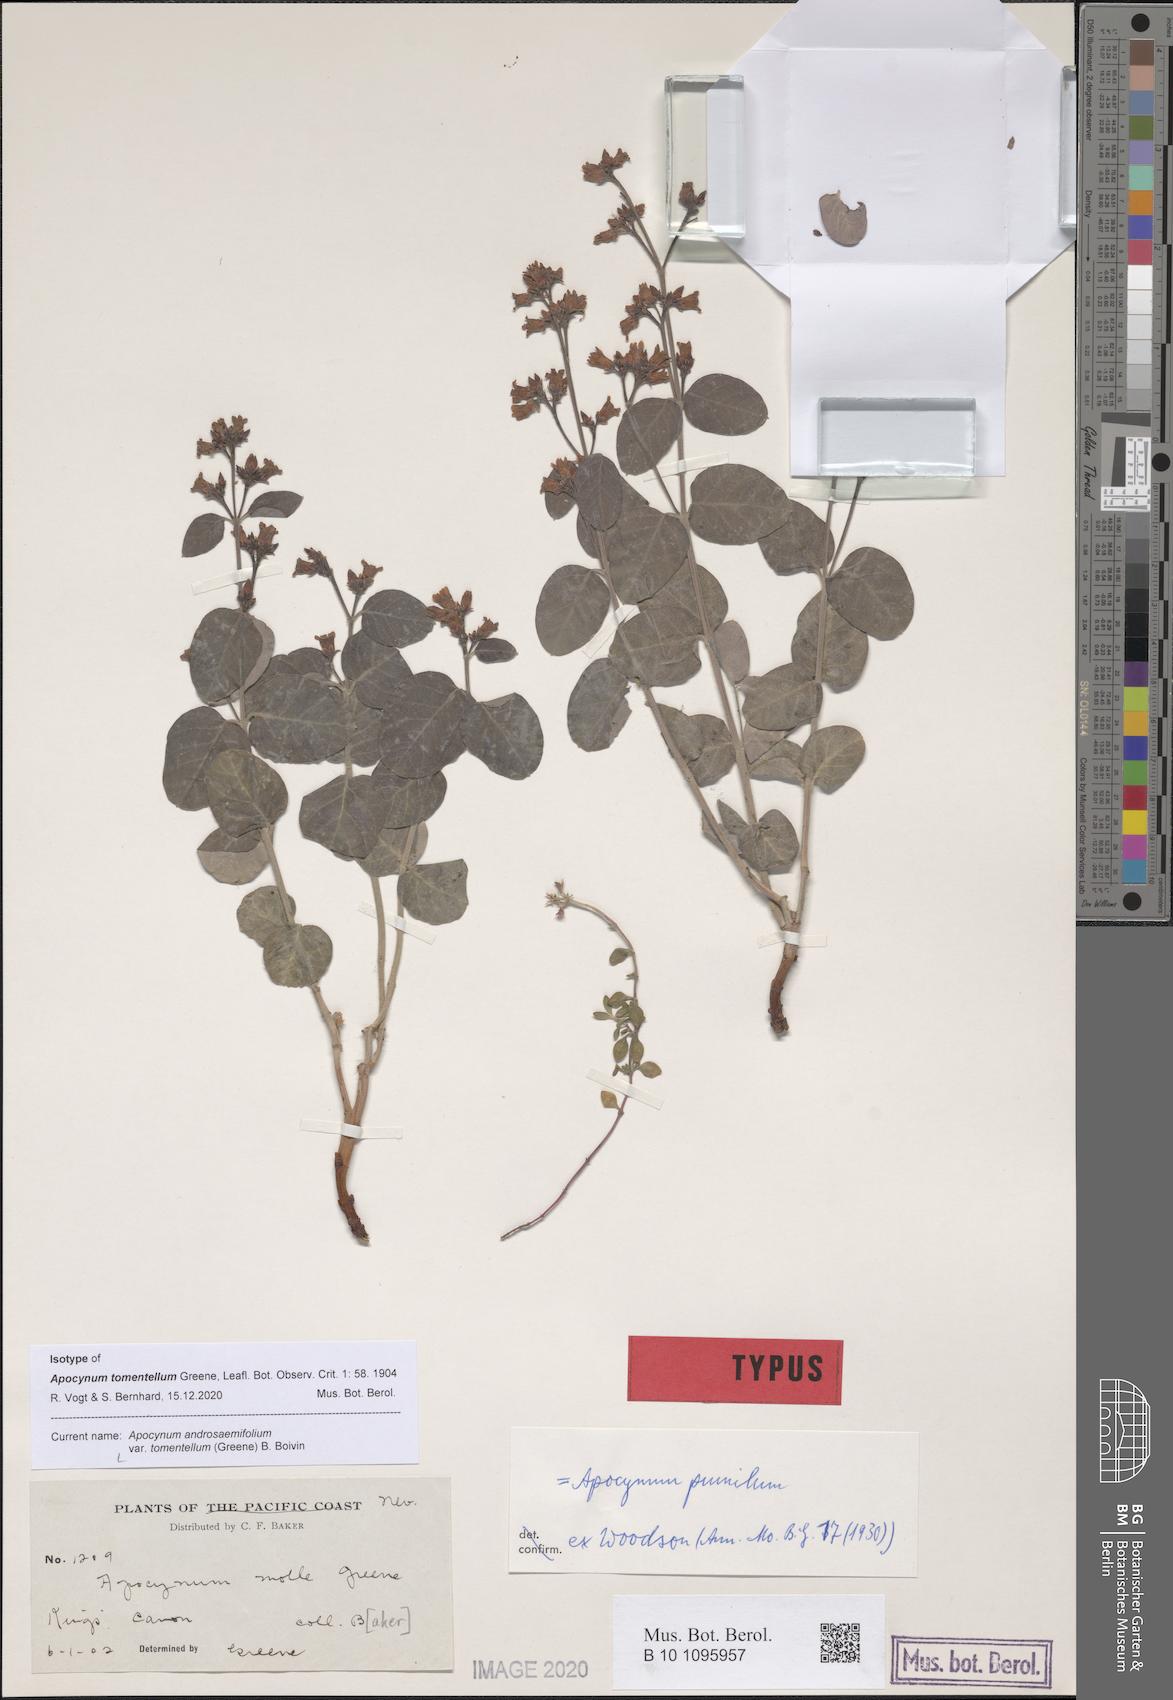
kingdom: Plantae
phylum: Tracheophyta
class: Magnoliopsida
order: Gentianales
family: Apocynaceae
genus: Apocynum
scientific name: Apocynum androsaemifolium
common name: Spreading dogbane
